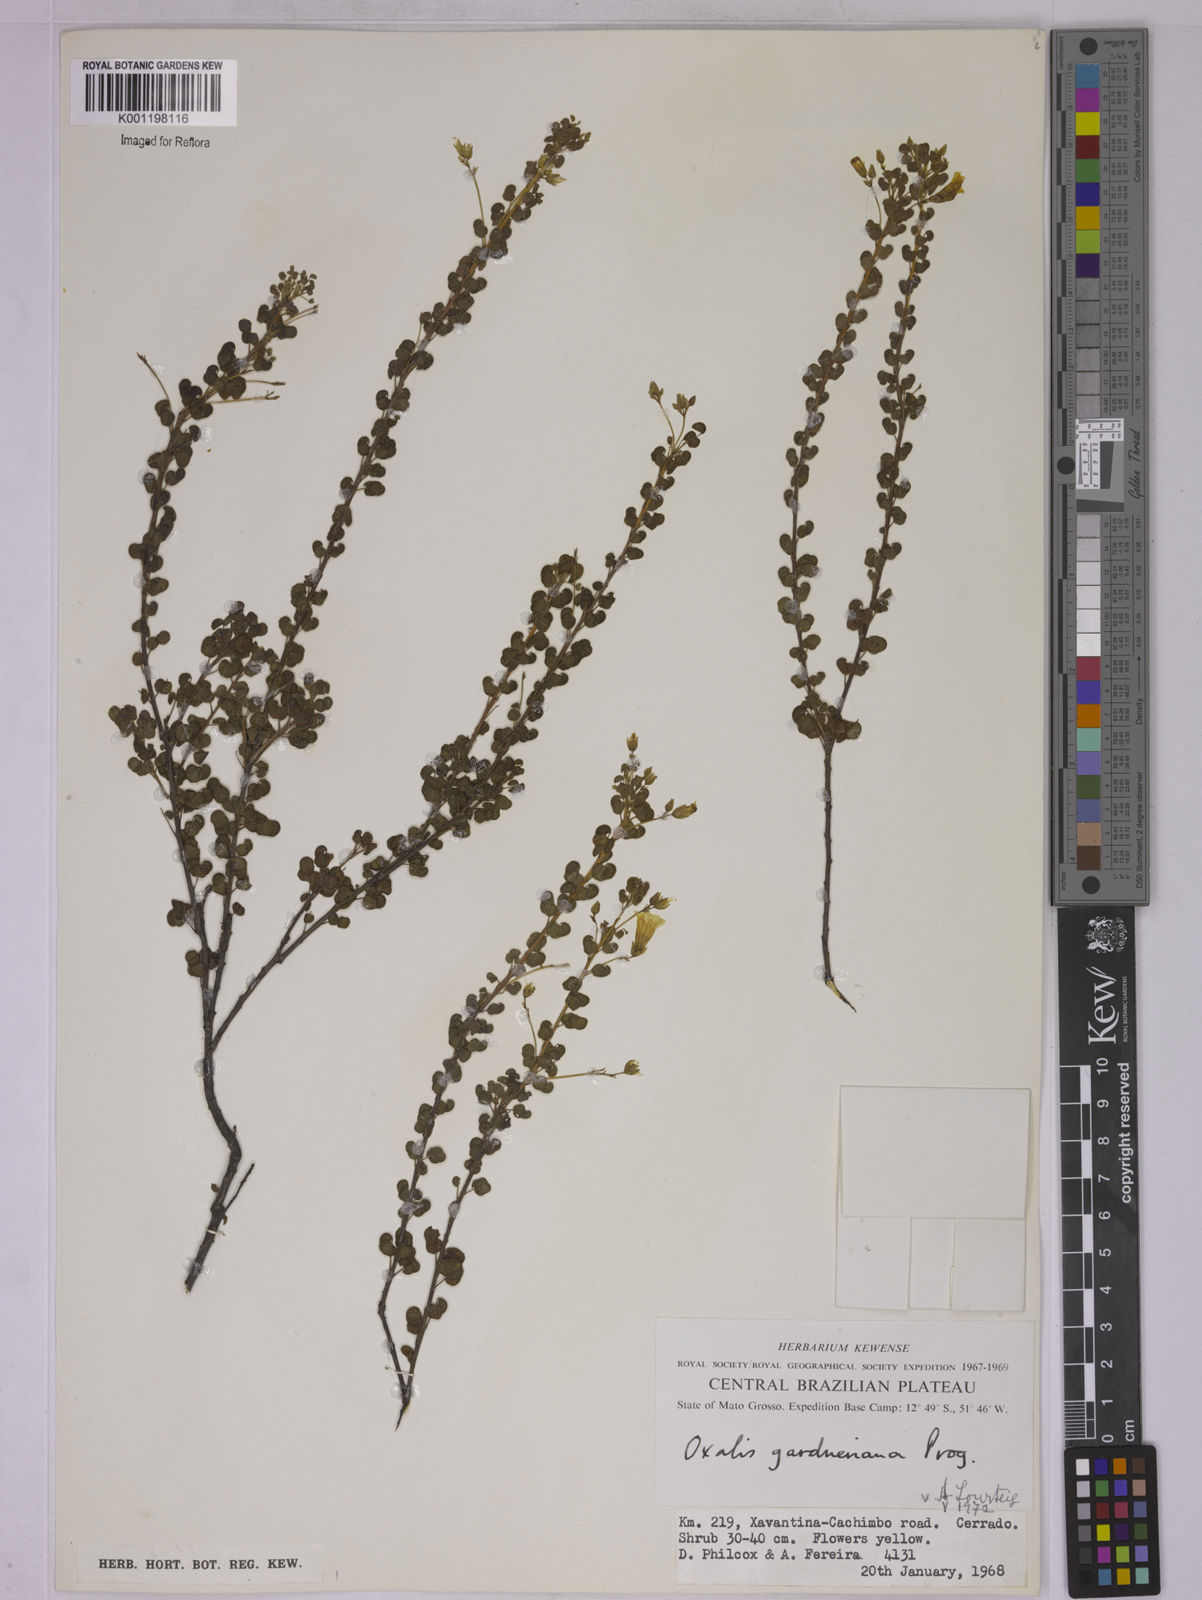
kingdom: Plantae
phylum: Tracheophyta
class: Magnoliopsida
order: Oxalidales
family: Oxalidaceae
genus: Oxalis
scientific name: Oxalis gardneriana
